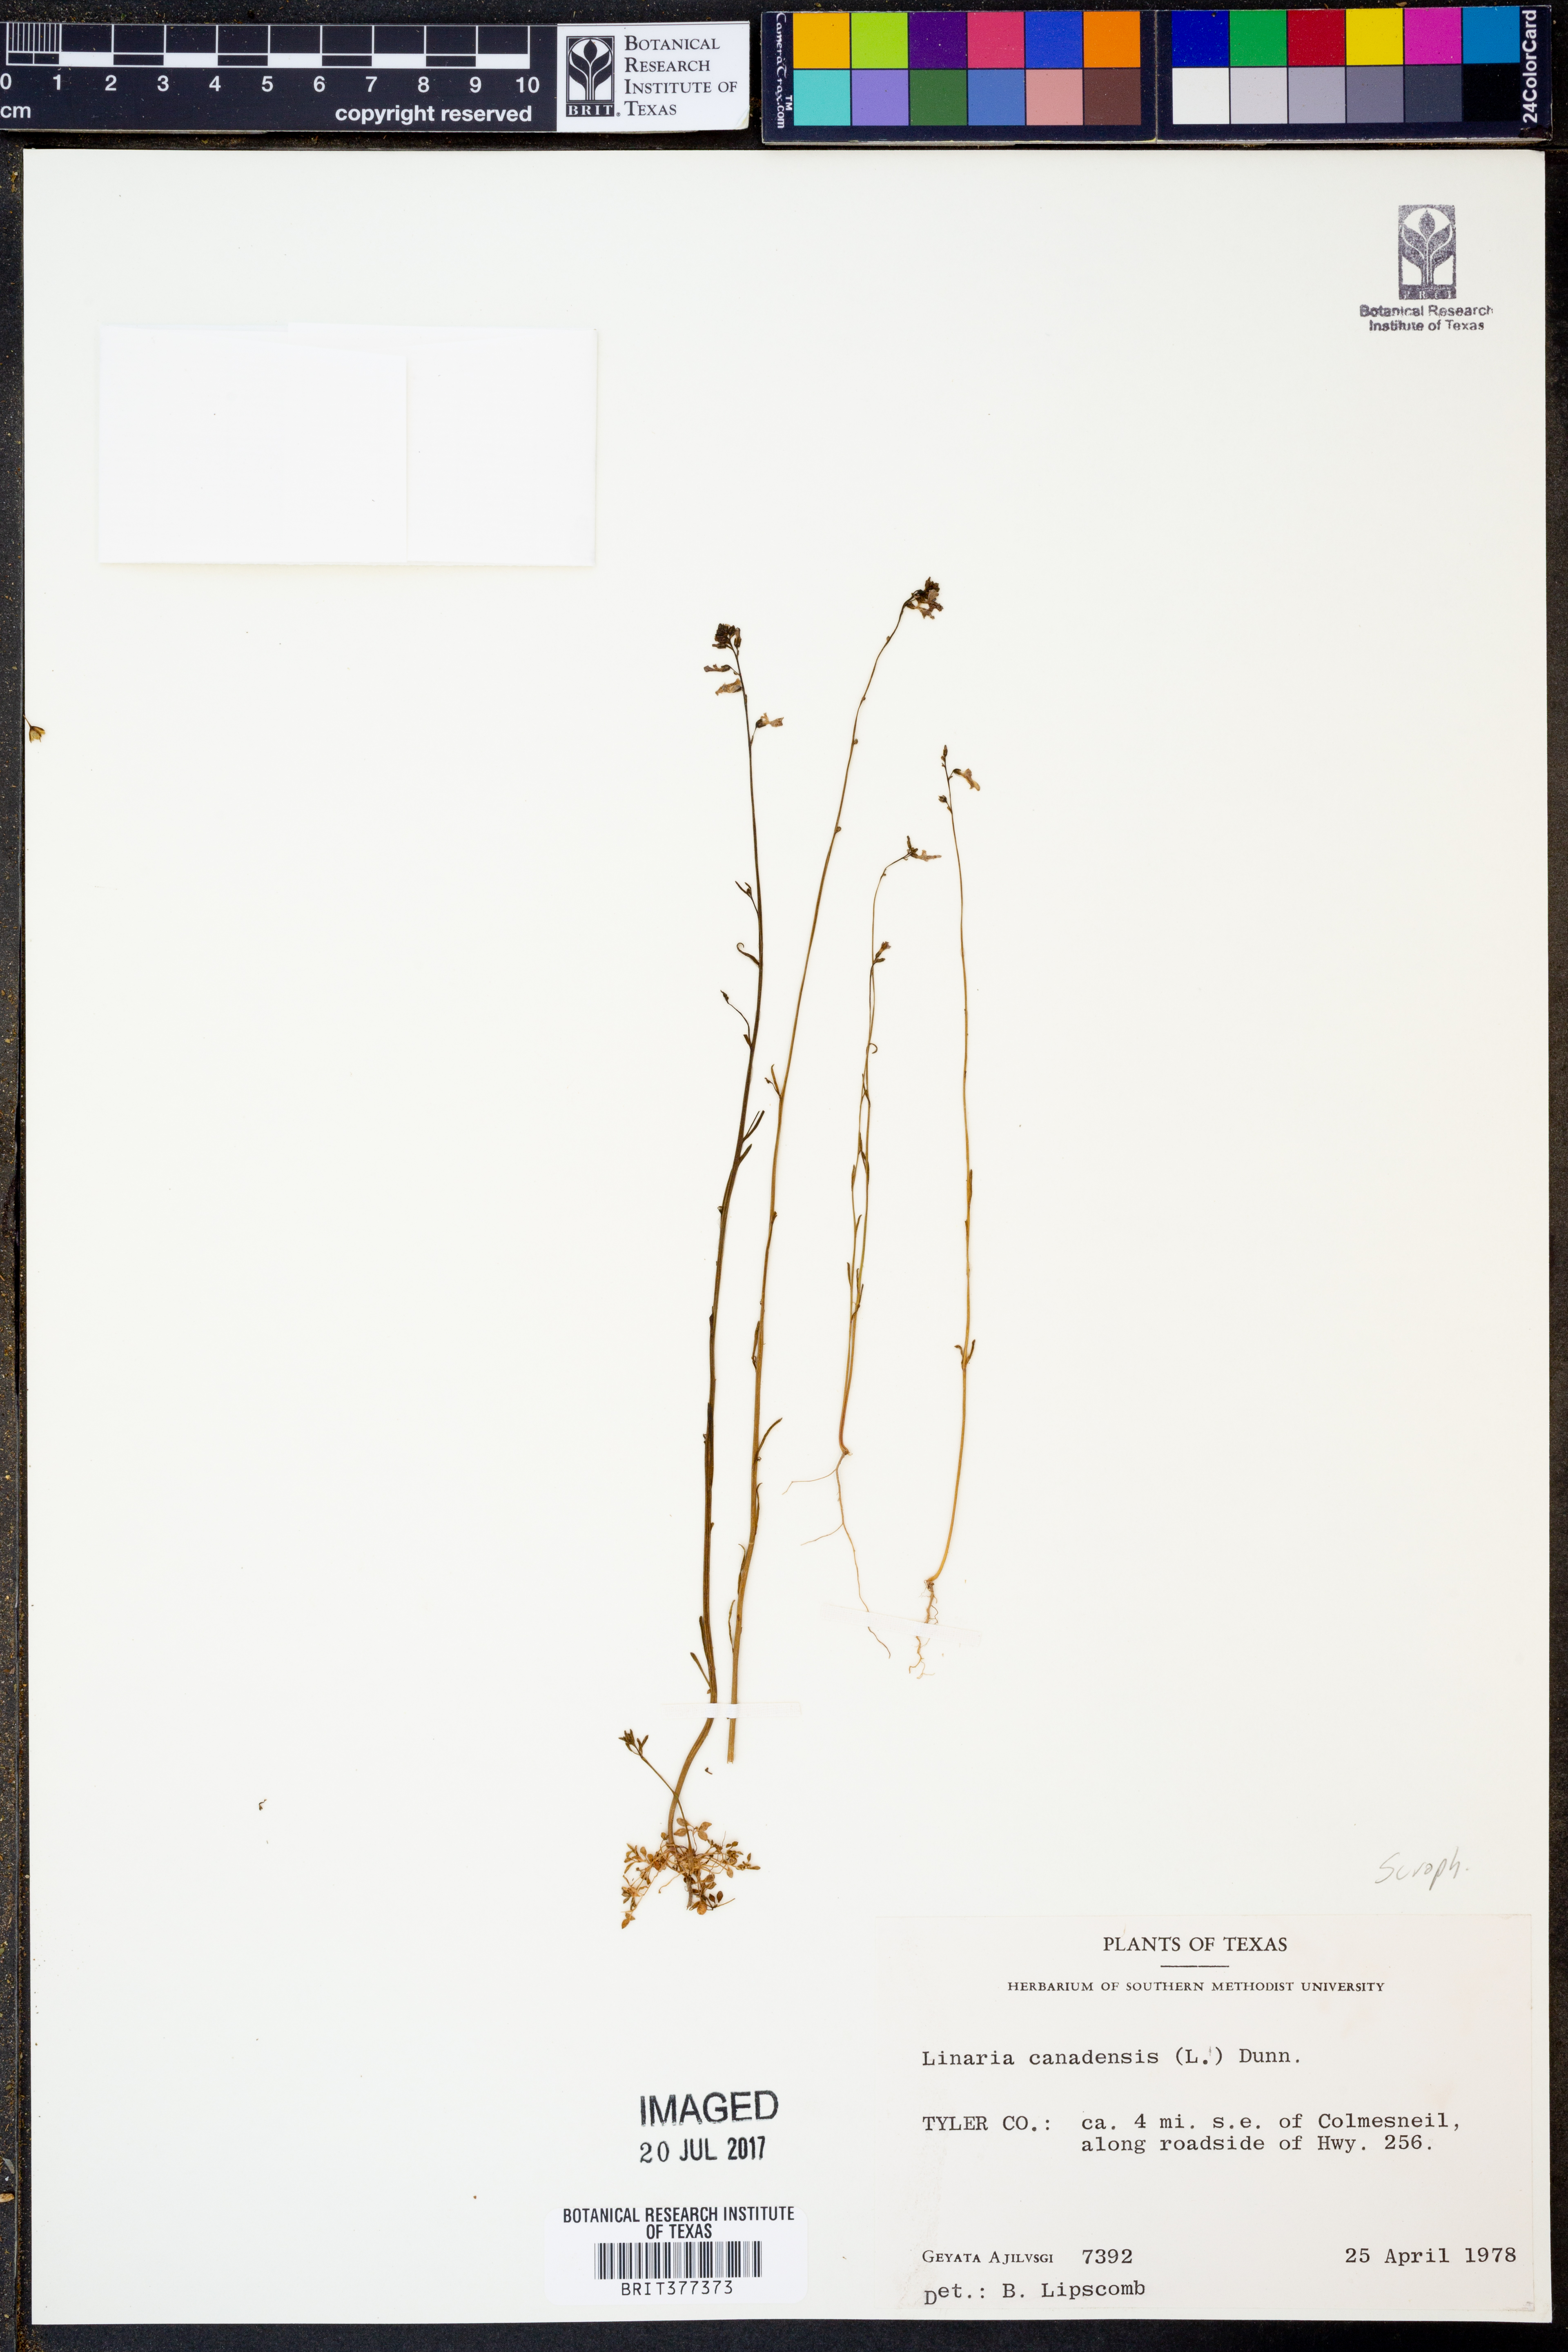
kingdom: Plantae
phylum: Tracheophyta
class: Magnoliopsida
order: Lamiales
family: Plantaginaceae
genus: Nuttallanthus
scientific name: Nuttallanthus canadensis
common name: Blue toadflax
